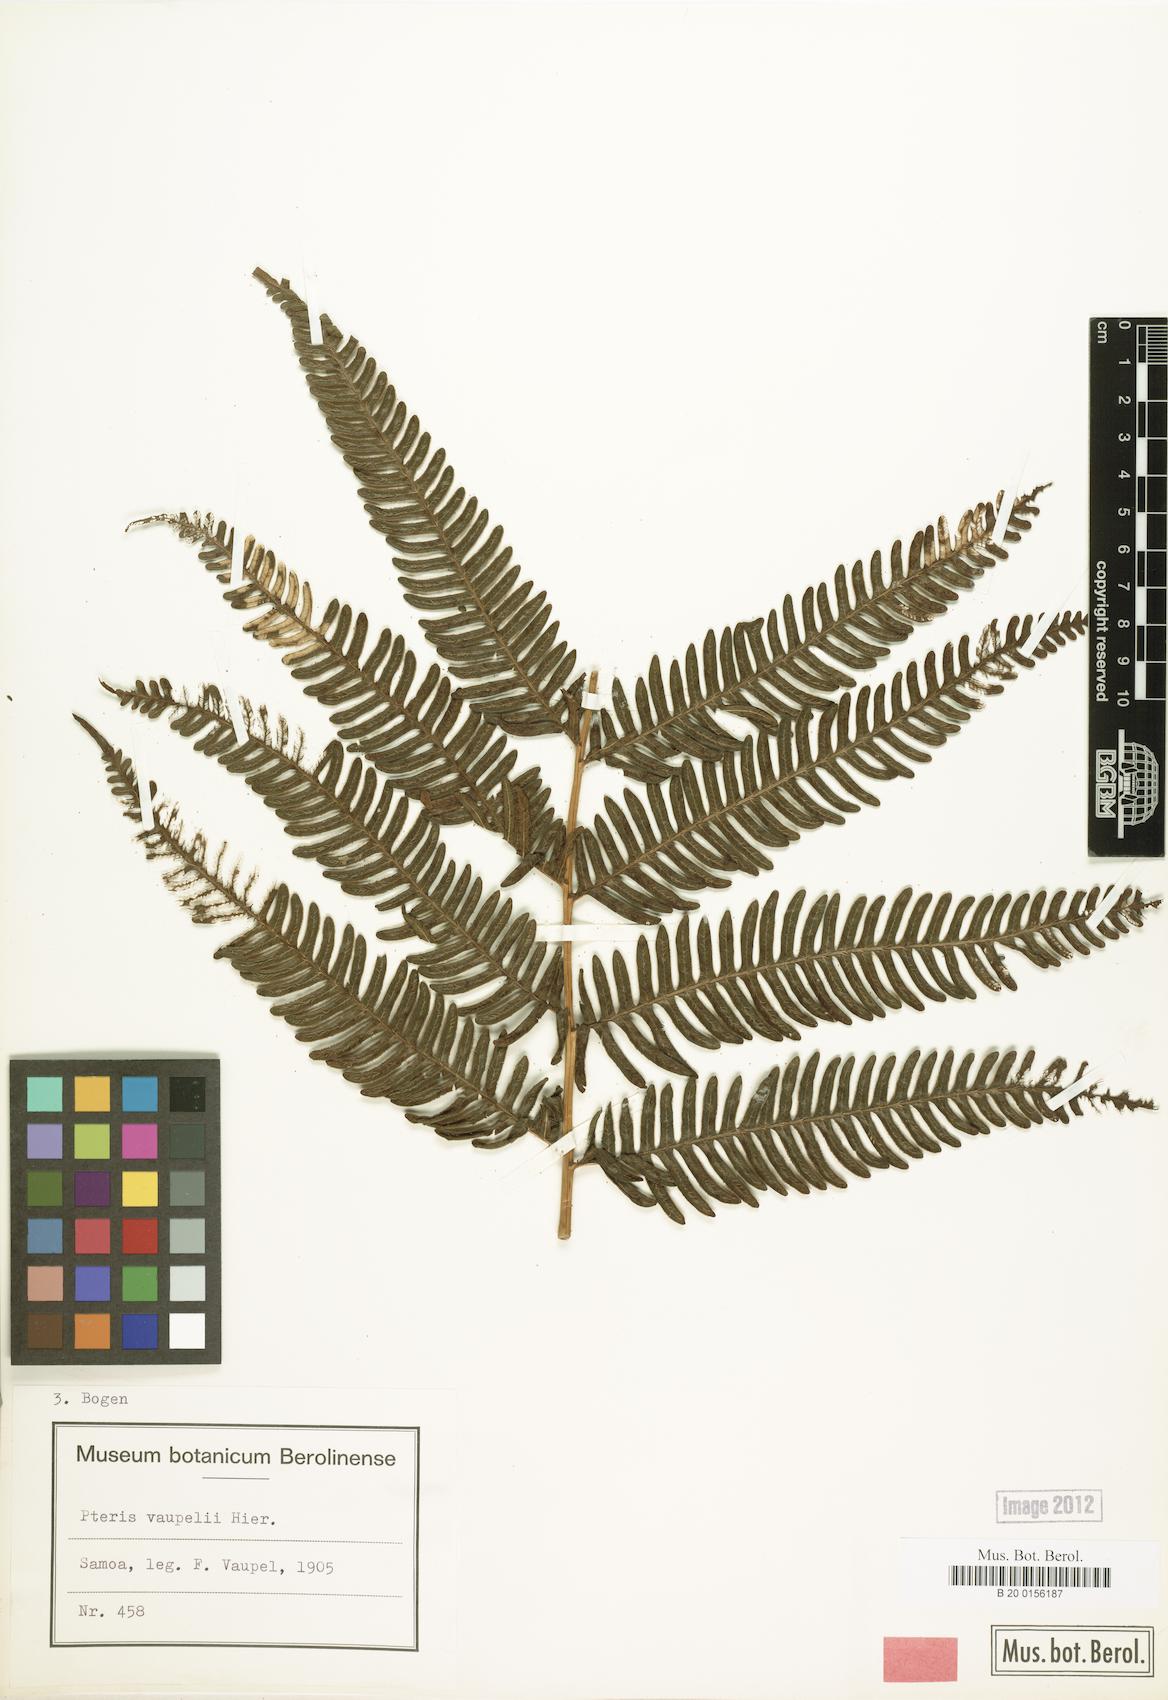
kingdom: Plantae
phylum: Tracheophyta
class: Polypodiopsida
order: Polypodiales
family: Pteridaceae
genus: Pteris
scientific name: Pteris vaupelii
